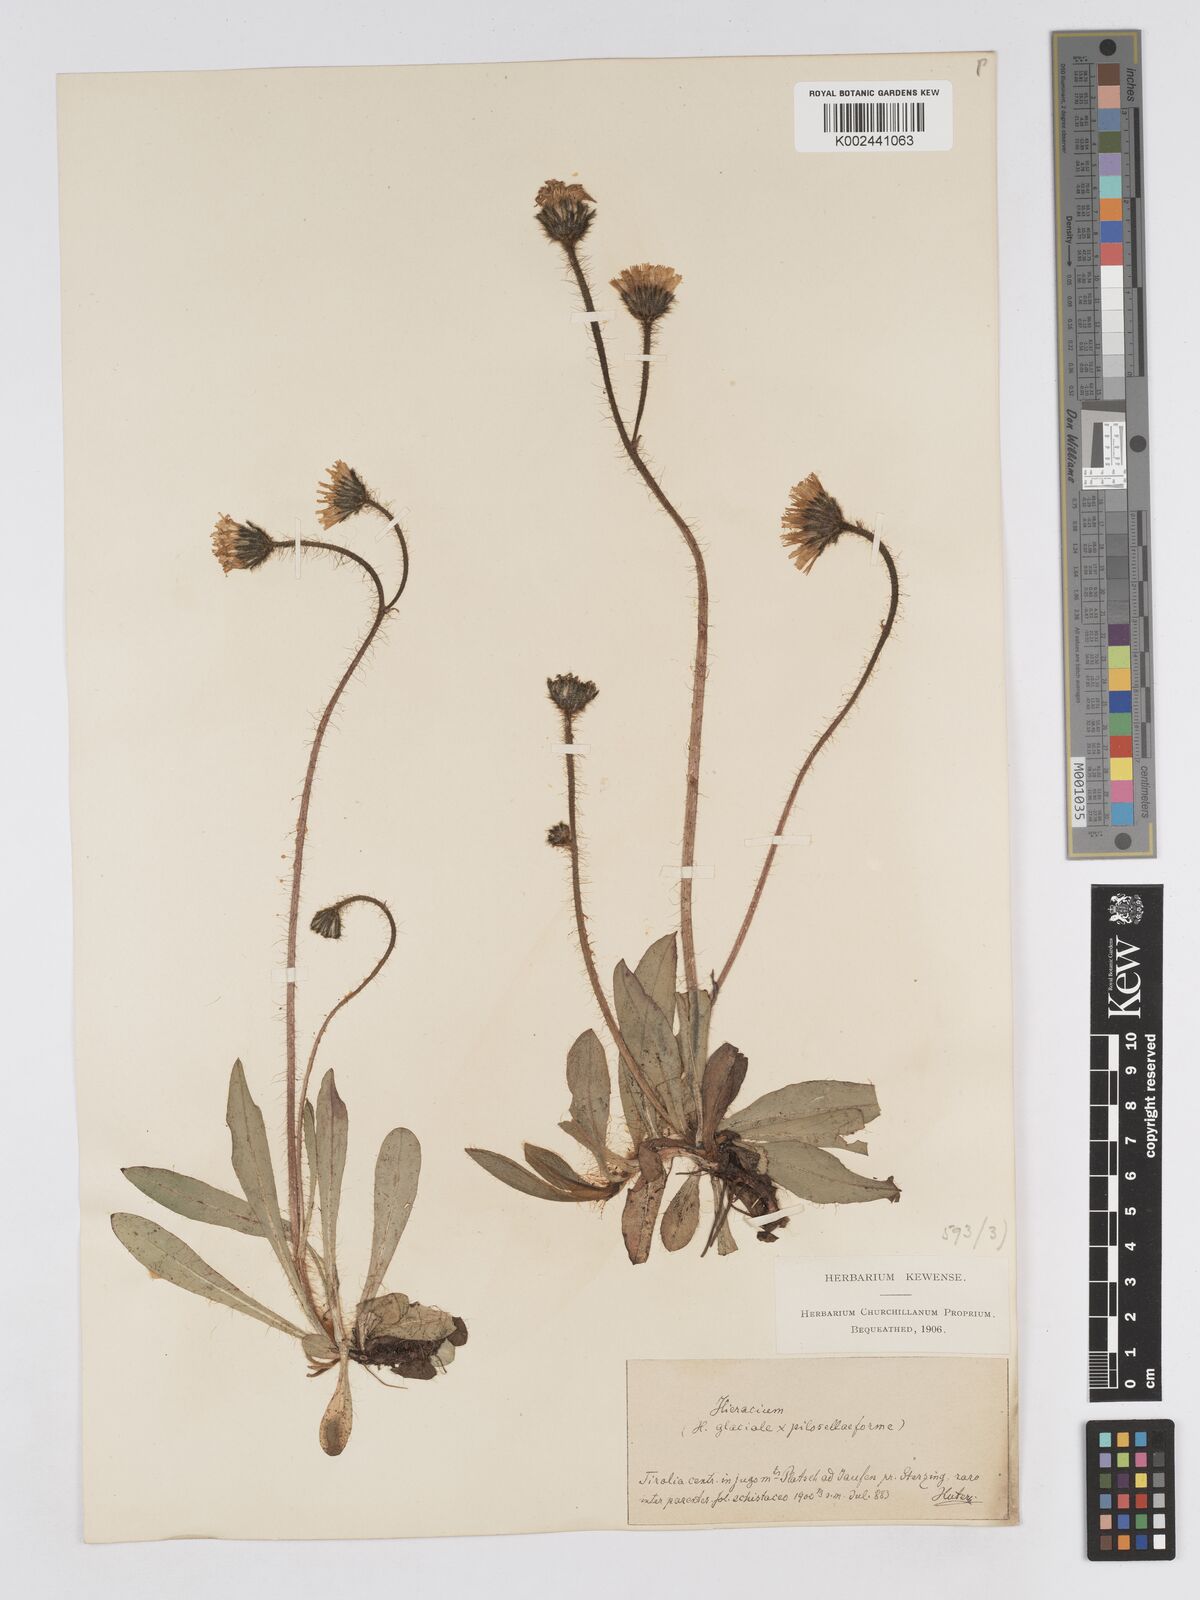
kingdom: Plantae
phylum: Tracheophyta
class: Magnoliopsida
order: Asterales
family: Asteraceae
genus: Pilosella
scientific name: Pilosella sphaerocephala
